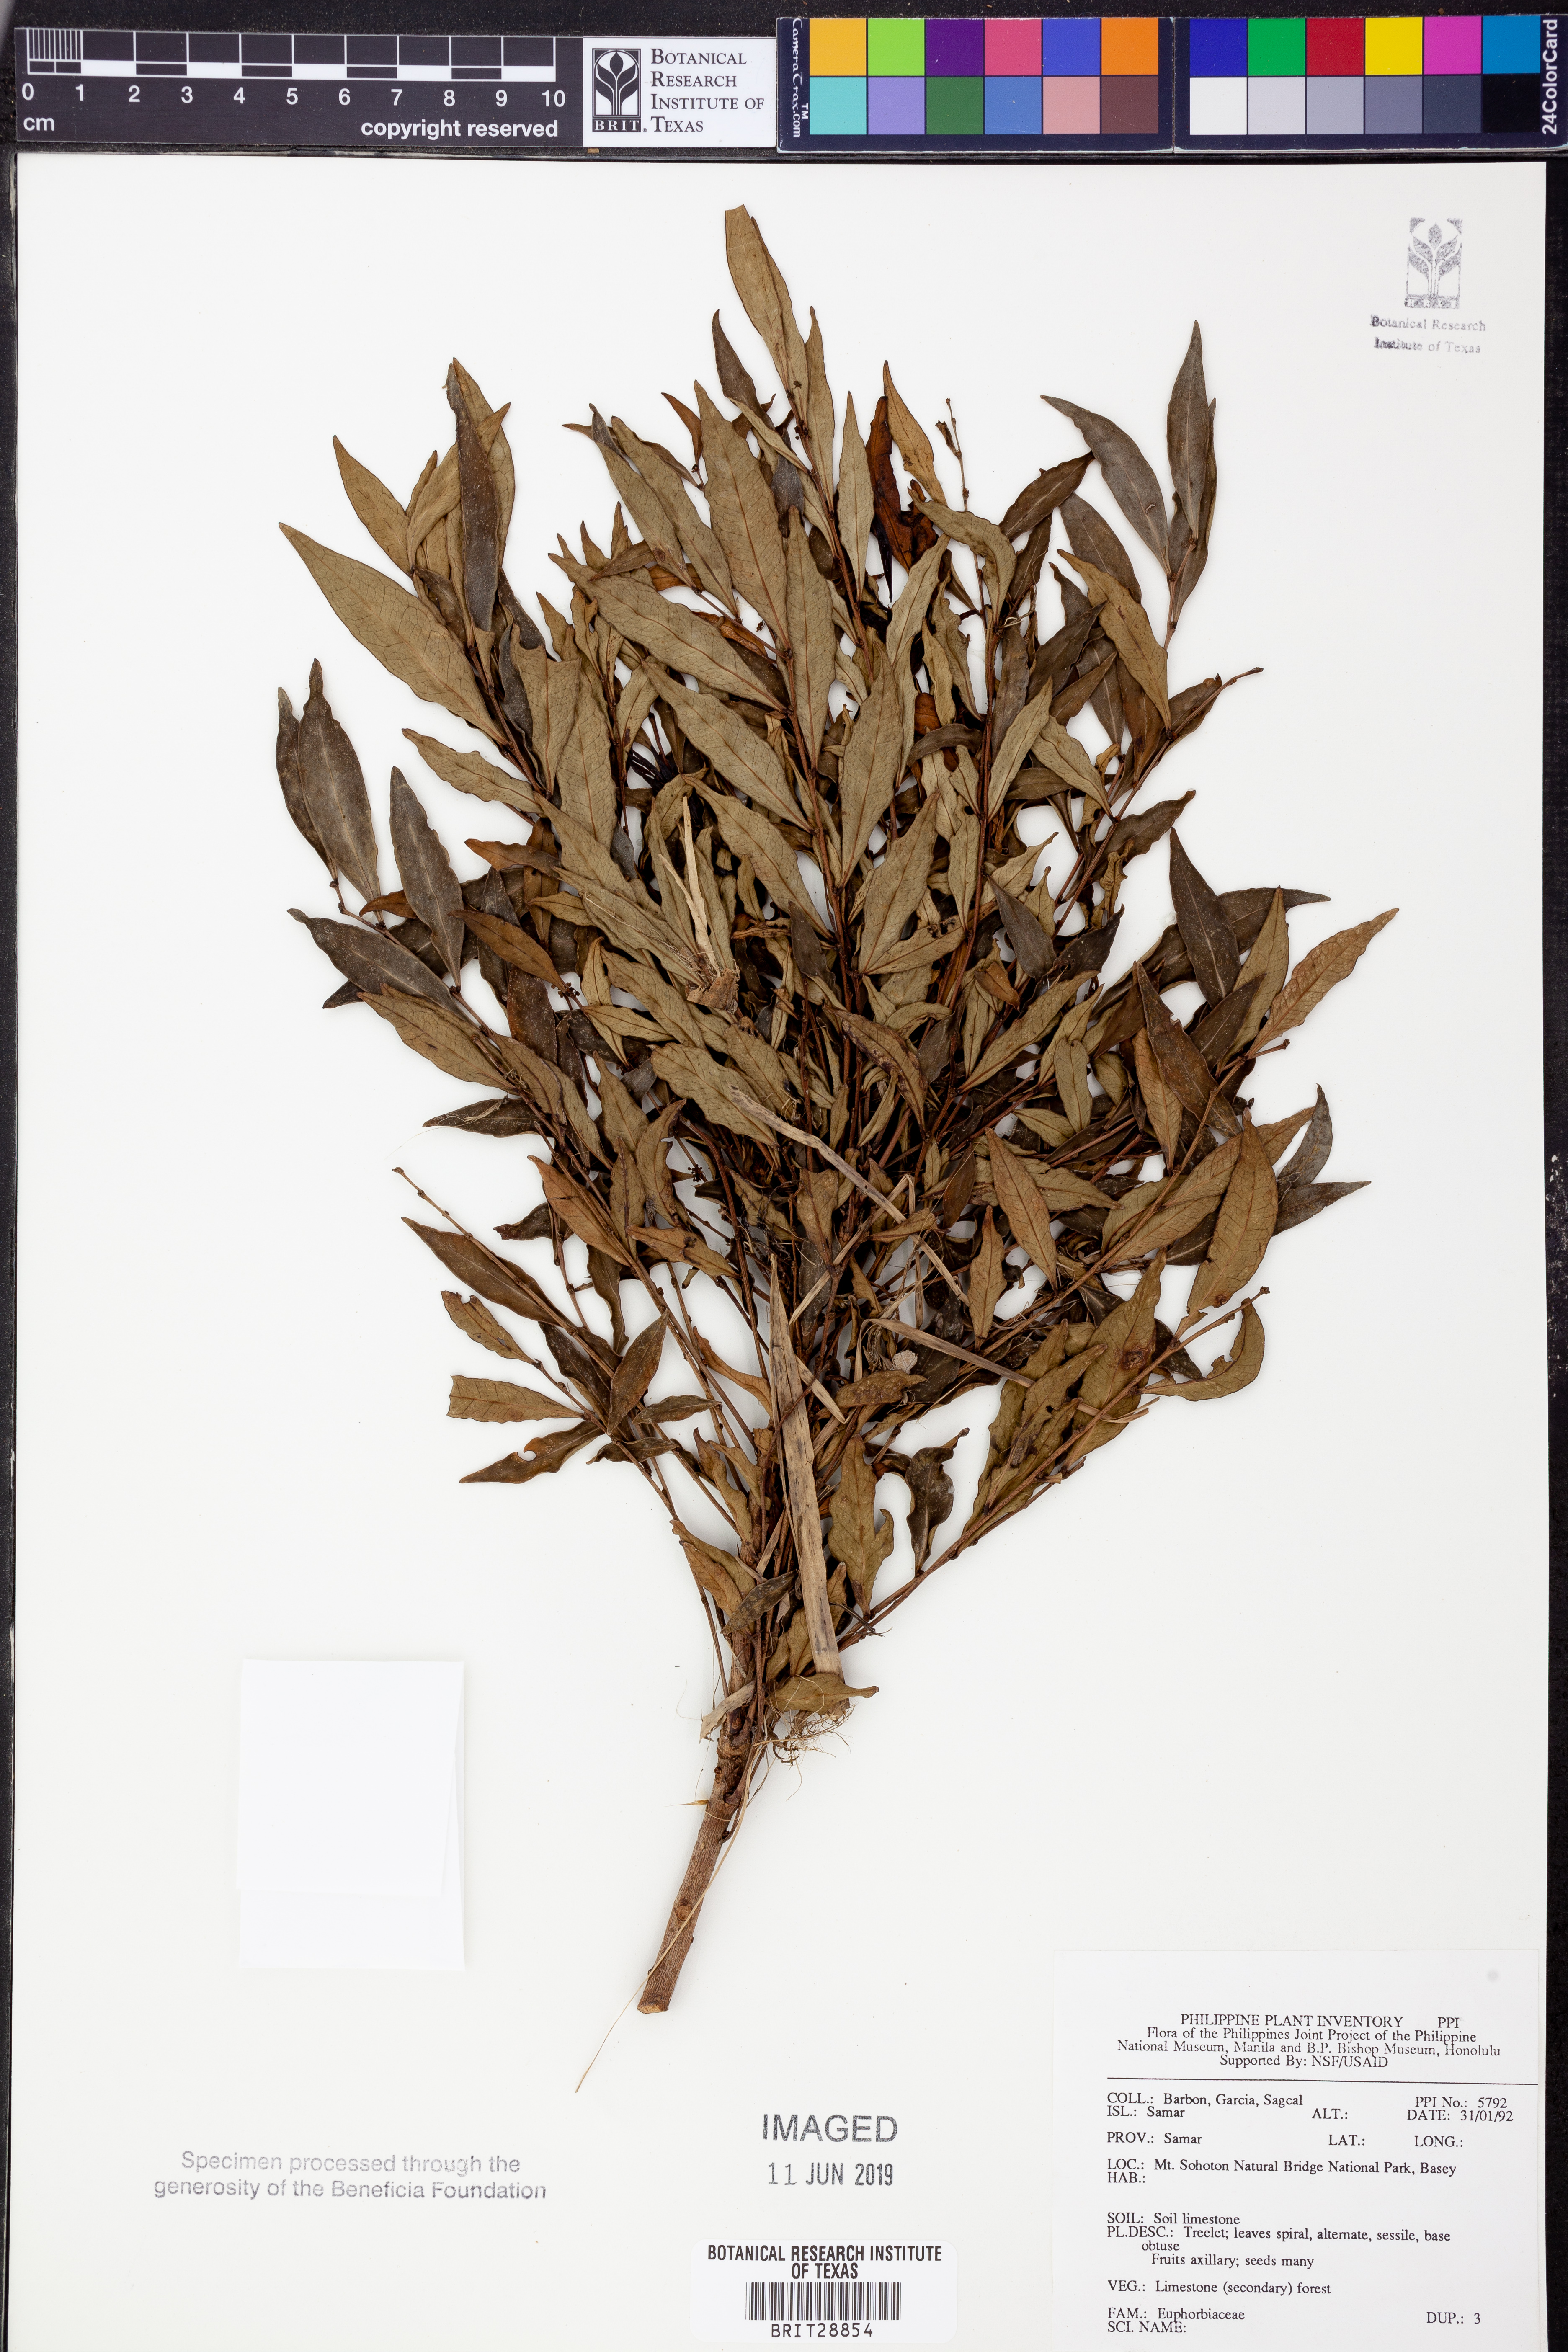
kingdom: Plantae
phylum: Tracheophyta
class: Magnoliopsida
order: Malpighiales
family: Euphorbiaceae
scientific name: Euphorbiaceae
